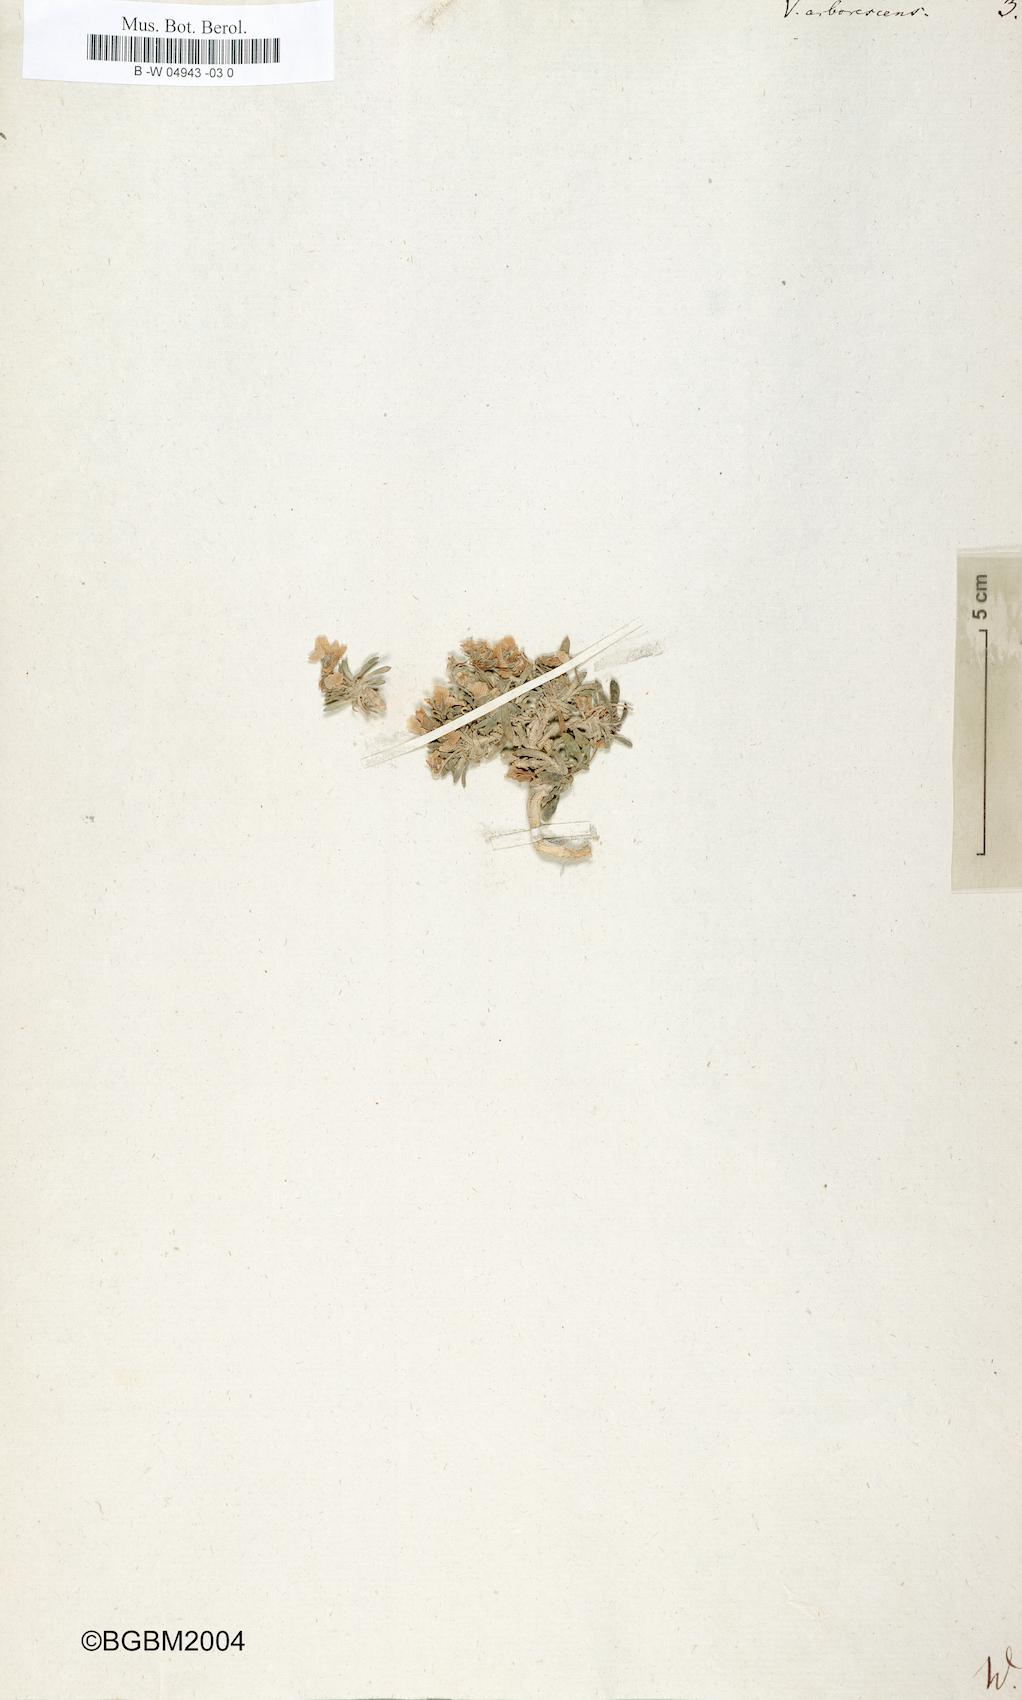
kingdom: Plantae
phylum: Tracheophyta
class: Magnoliopsida
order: Malpighiales
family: Violaceae
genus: Viola
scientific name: Viola arborescens
